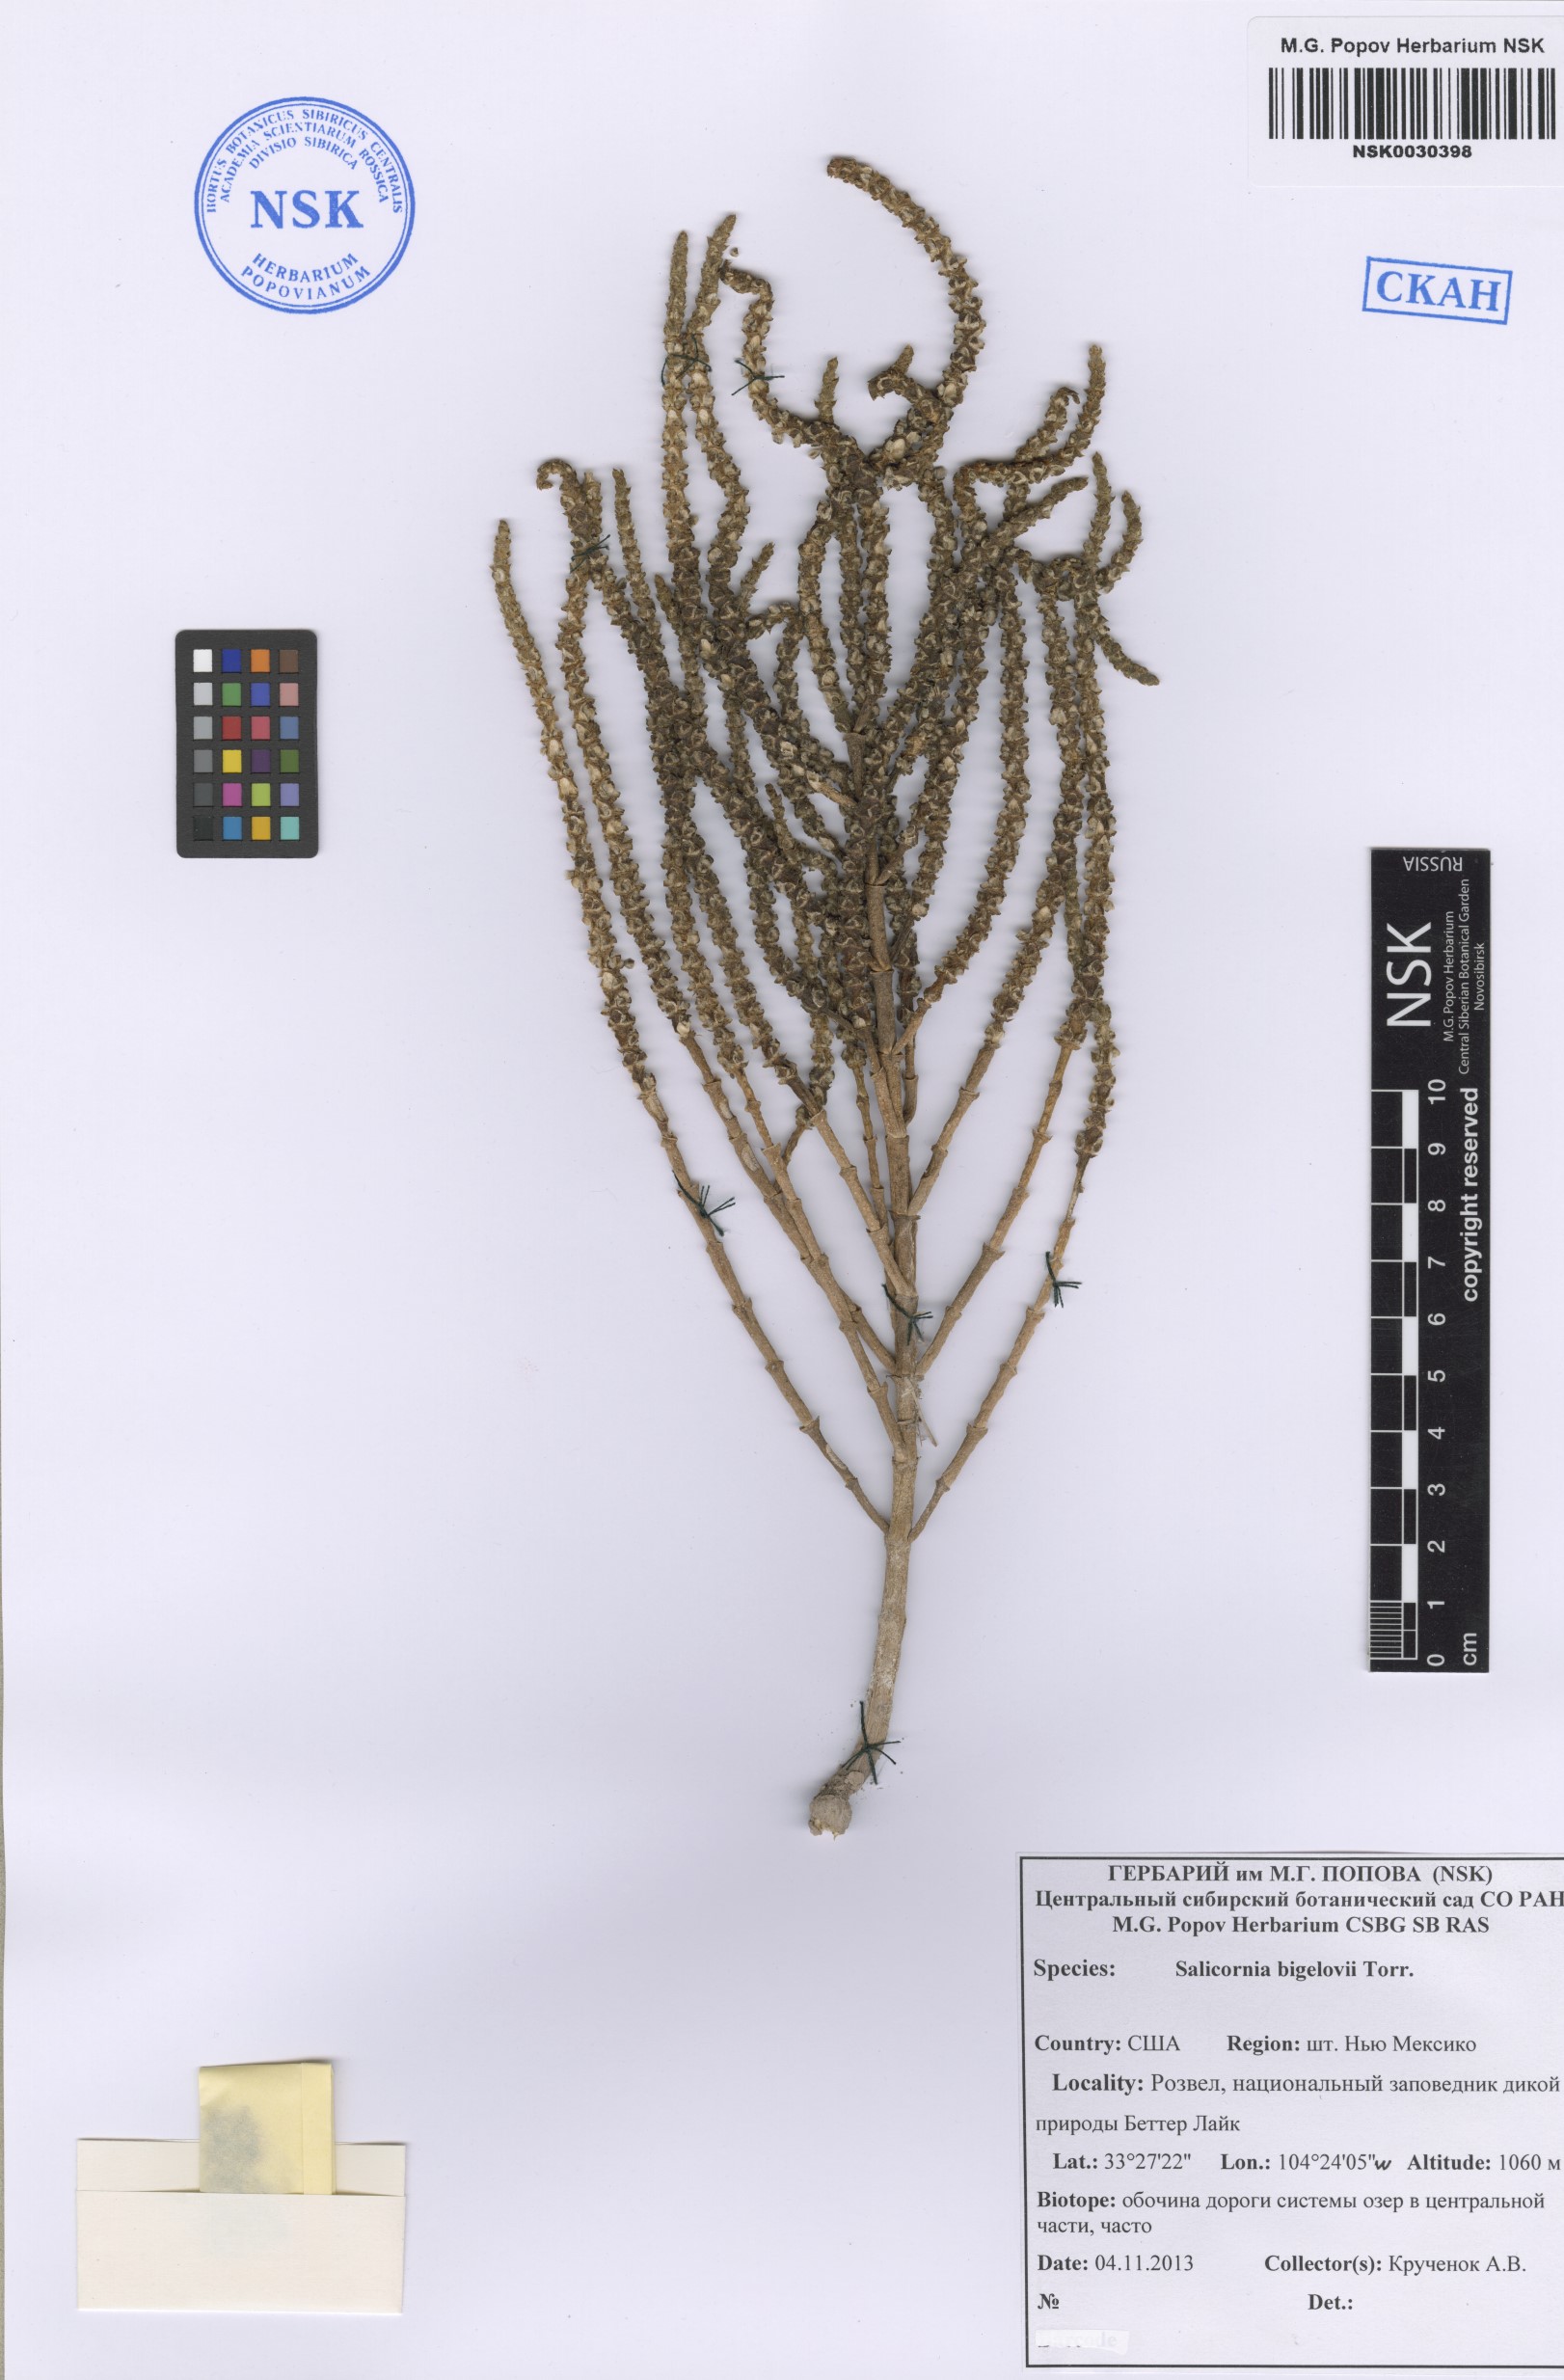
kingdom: Plantae
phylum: Tracheophyta
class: Magnoliopsida
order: Caryophyllales
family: Amaranthaceae
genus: Salicornia
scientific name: Salicornia bigelovii
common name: Dwarf glasswort
